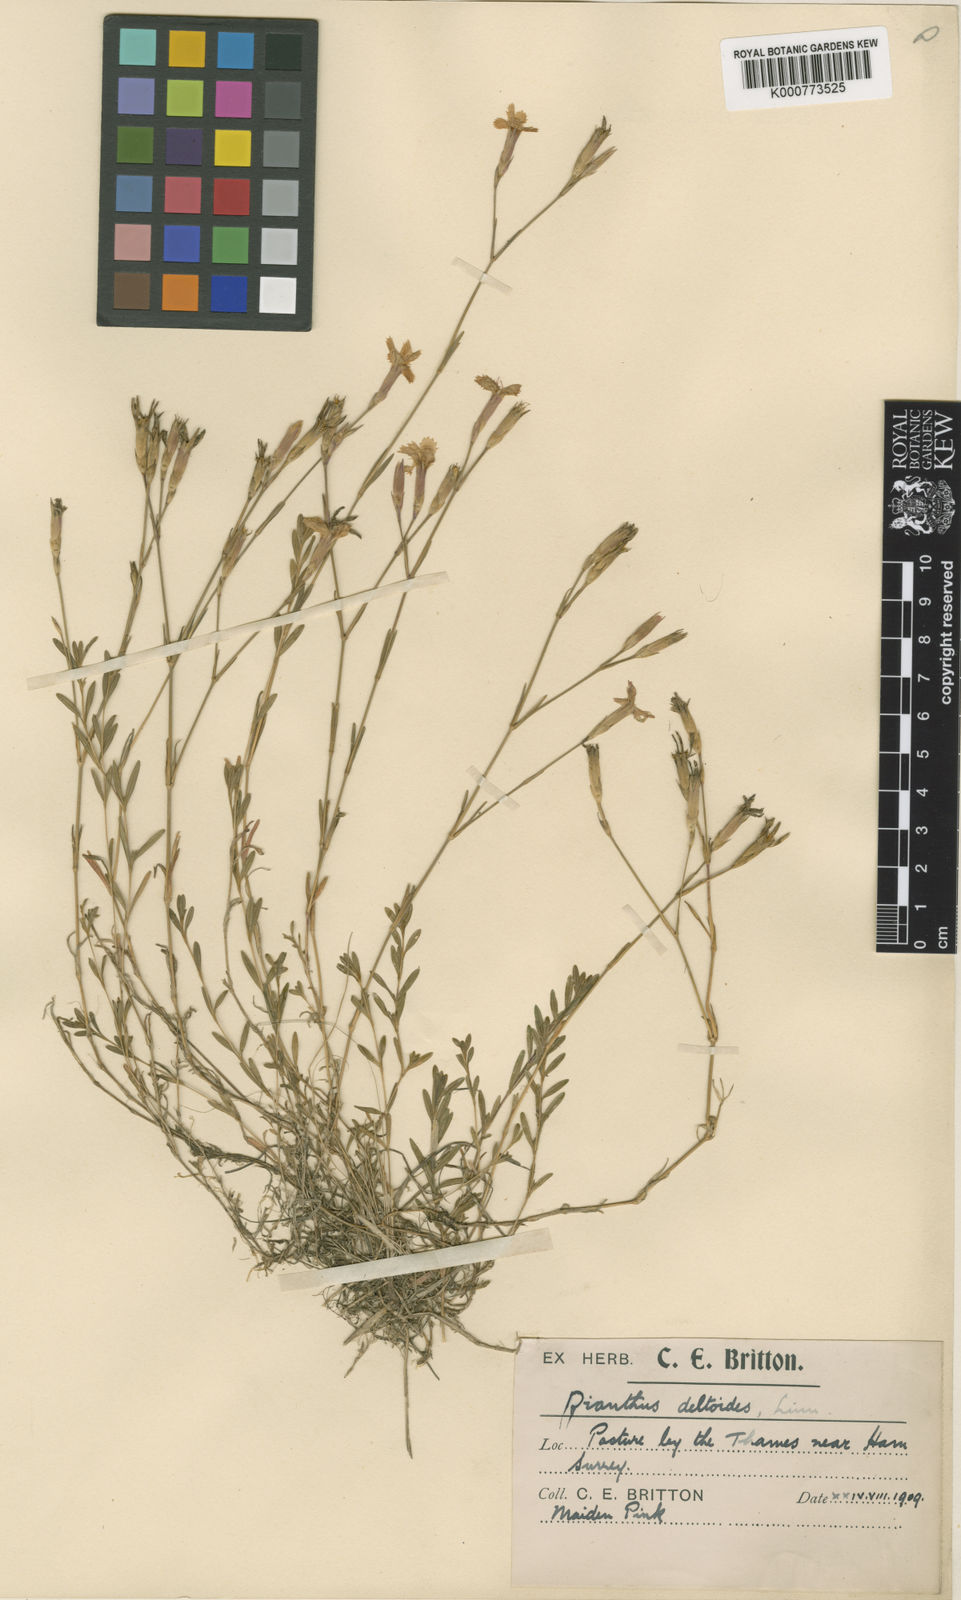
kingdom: Plantae
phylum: Tracheophyta
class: Magnoliopsida
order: Caryophyllales
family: Caryophyllaceae
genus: Dianthus
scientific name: Dianthus deltoides
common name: Maiden pink
